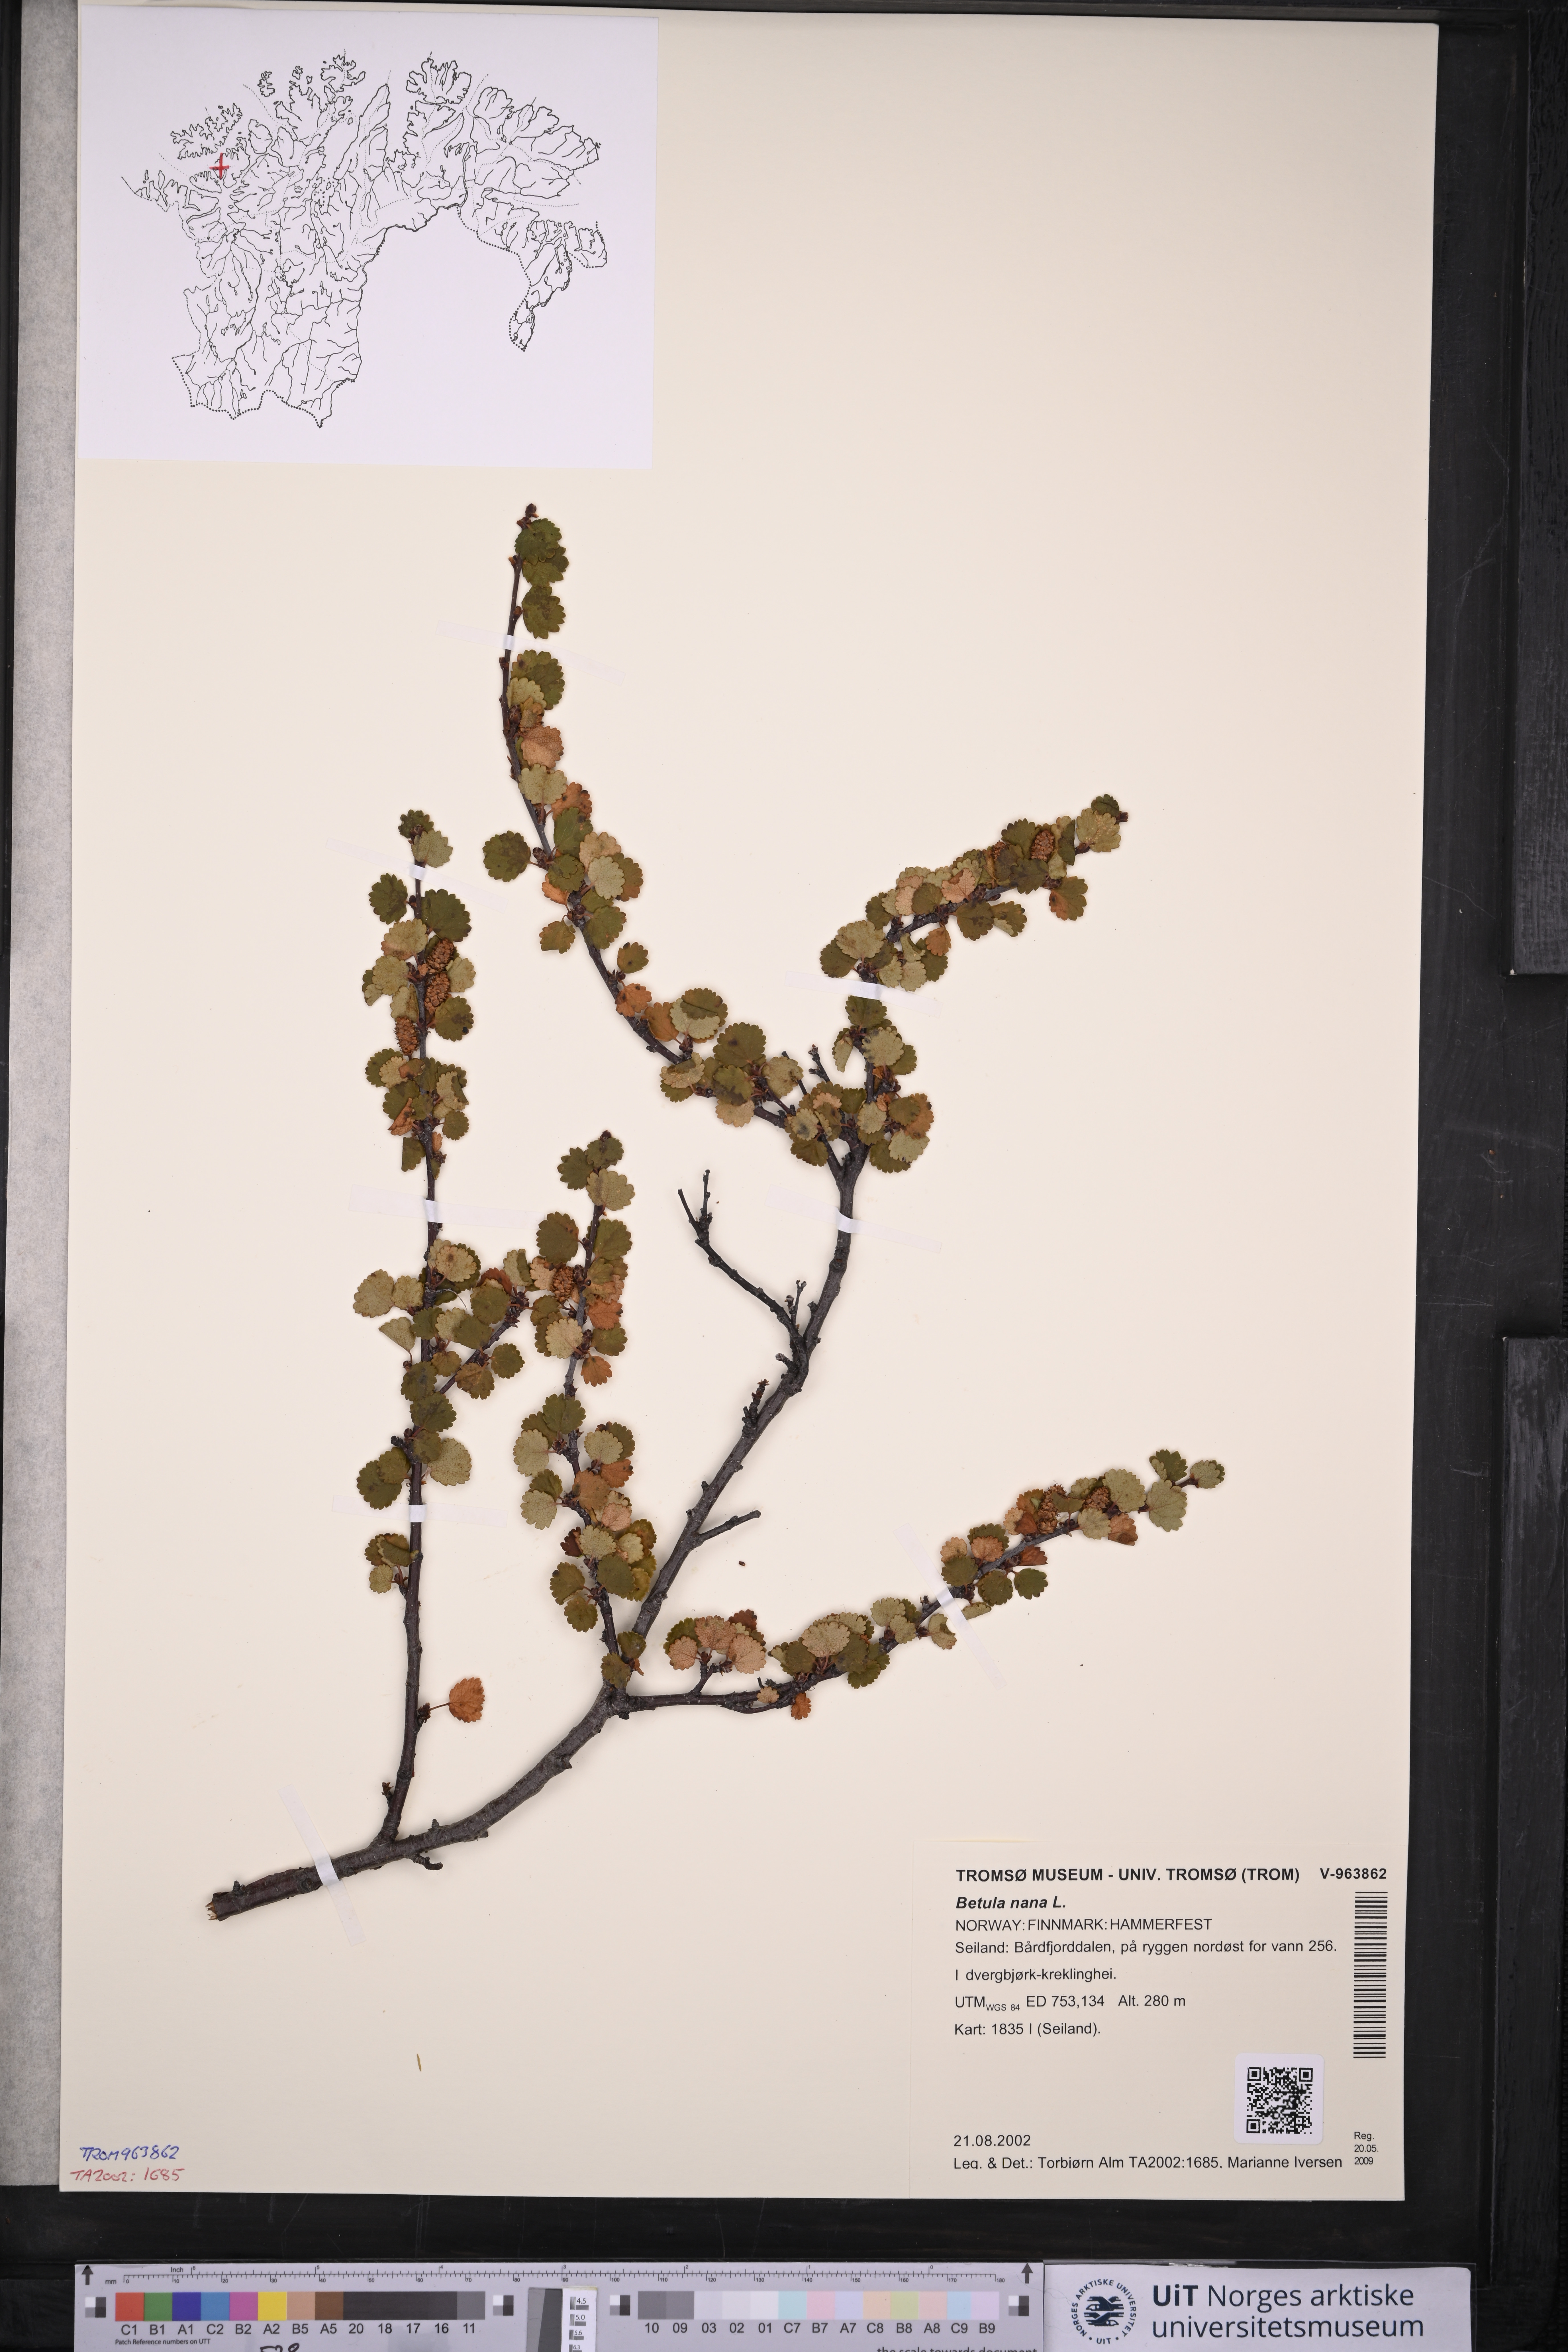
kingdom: Plantae
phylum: Tracheophyta
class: Magnoliopsida
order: Fagales
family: Betulaceae
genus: Betula
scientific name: Betula nana
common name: Arctic dwarf birch
